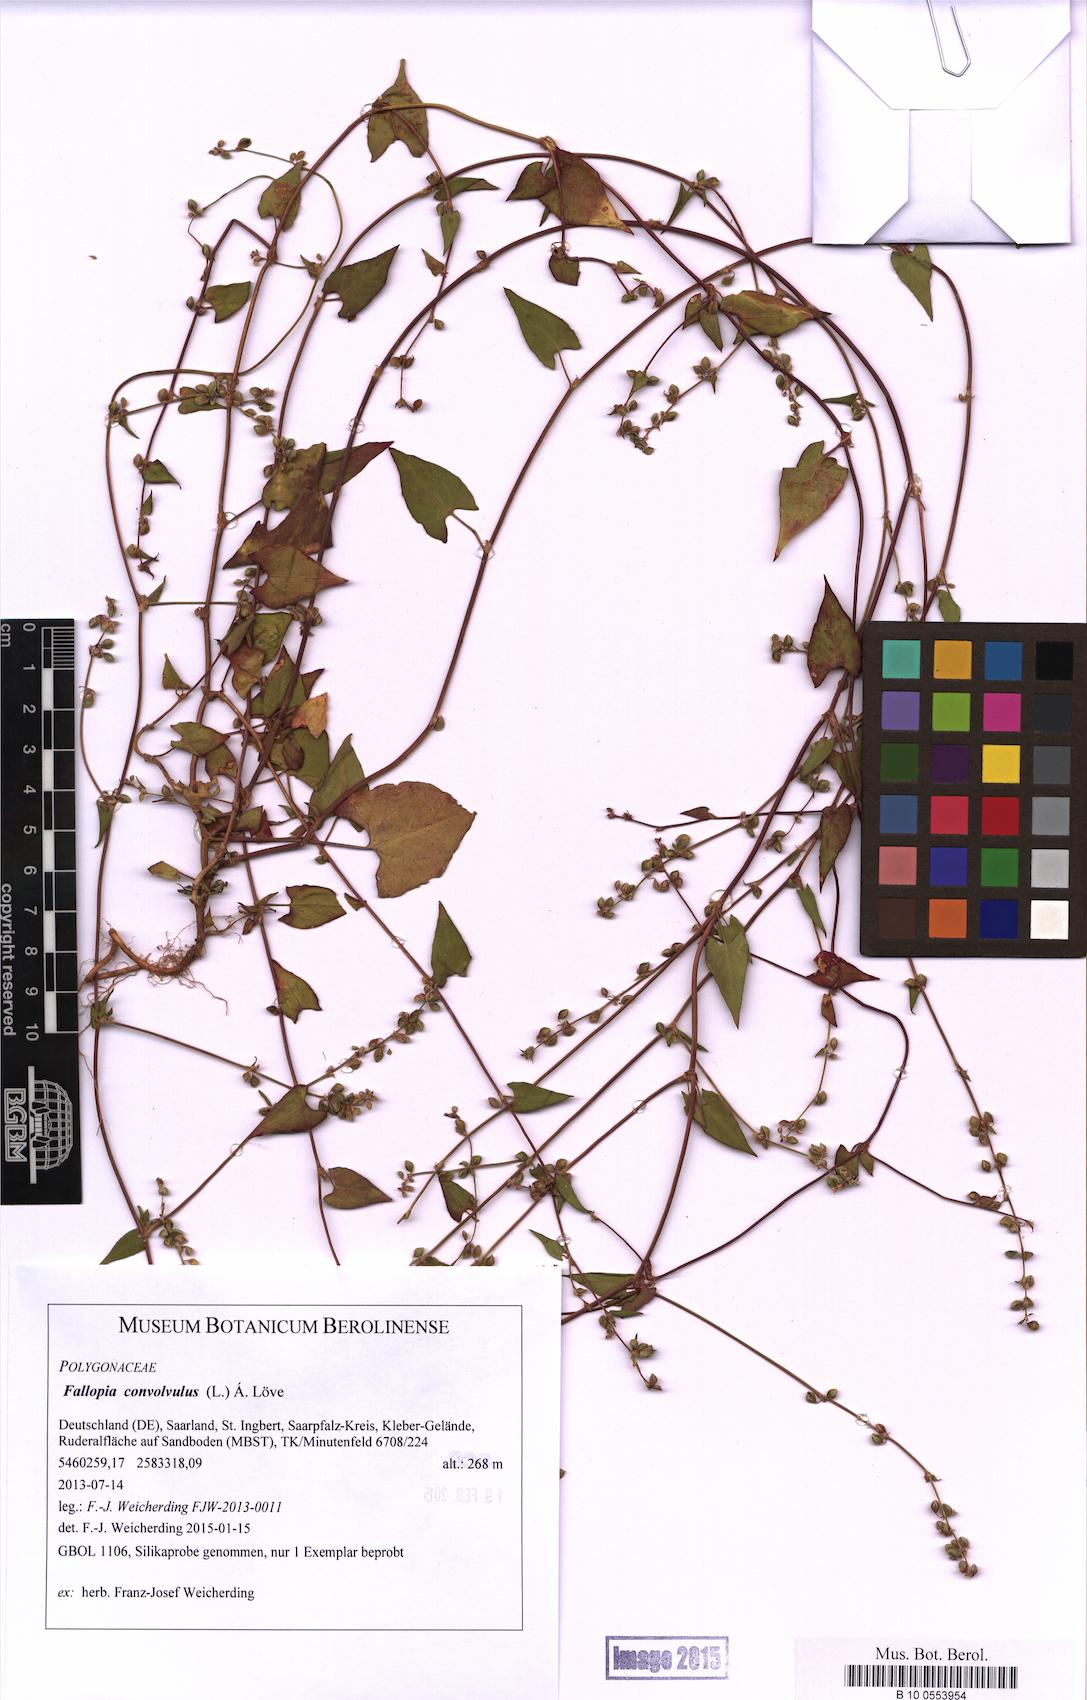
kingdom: Plantae
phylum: Tracheophyta
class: Magnoliopsida
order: Caryophyllales
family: Polygonaceae
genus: Fallopia
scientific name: Fallopia convolvulus
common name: Black bindweed
